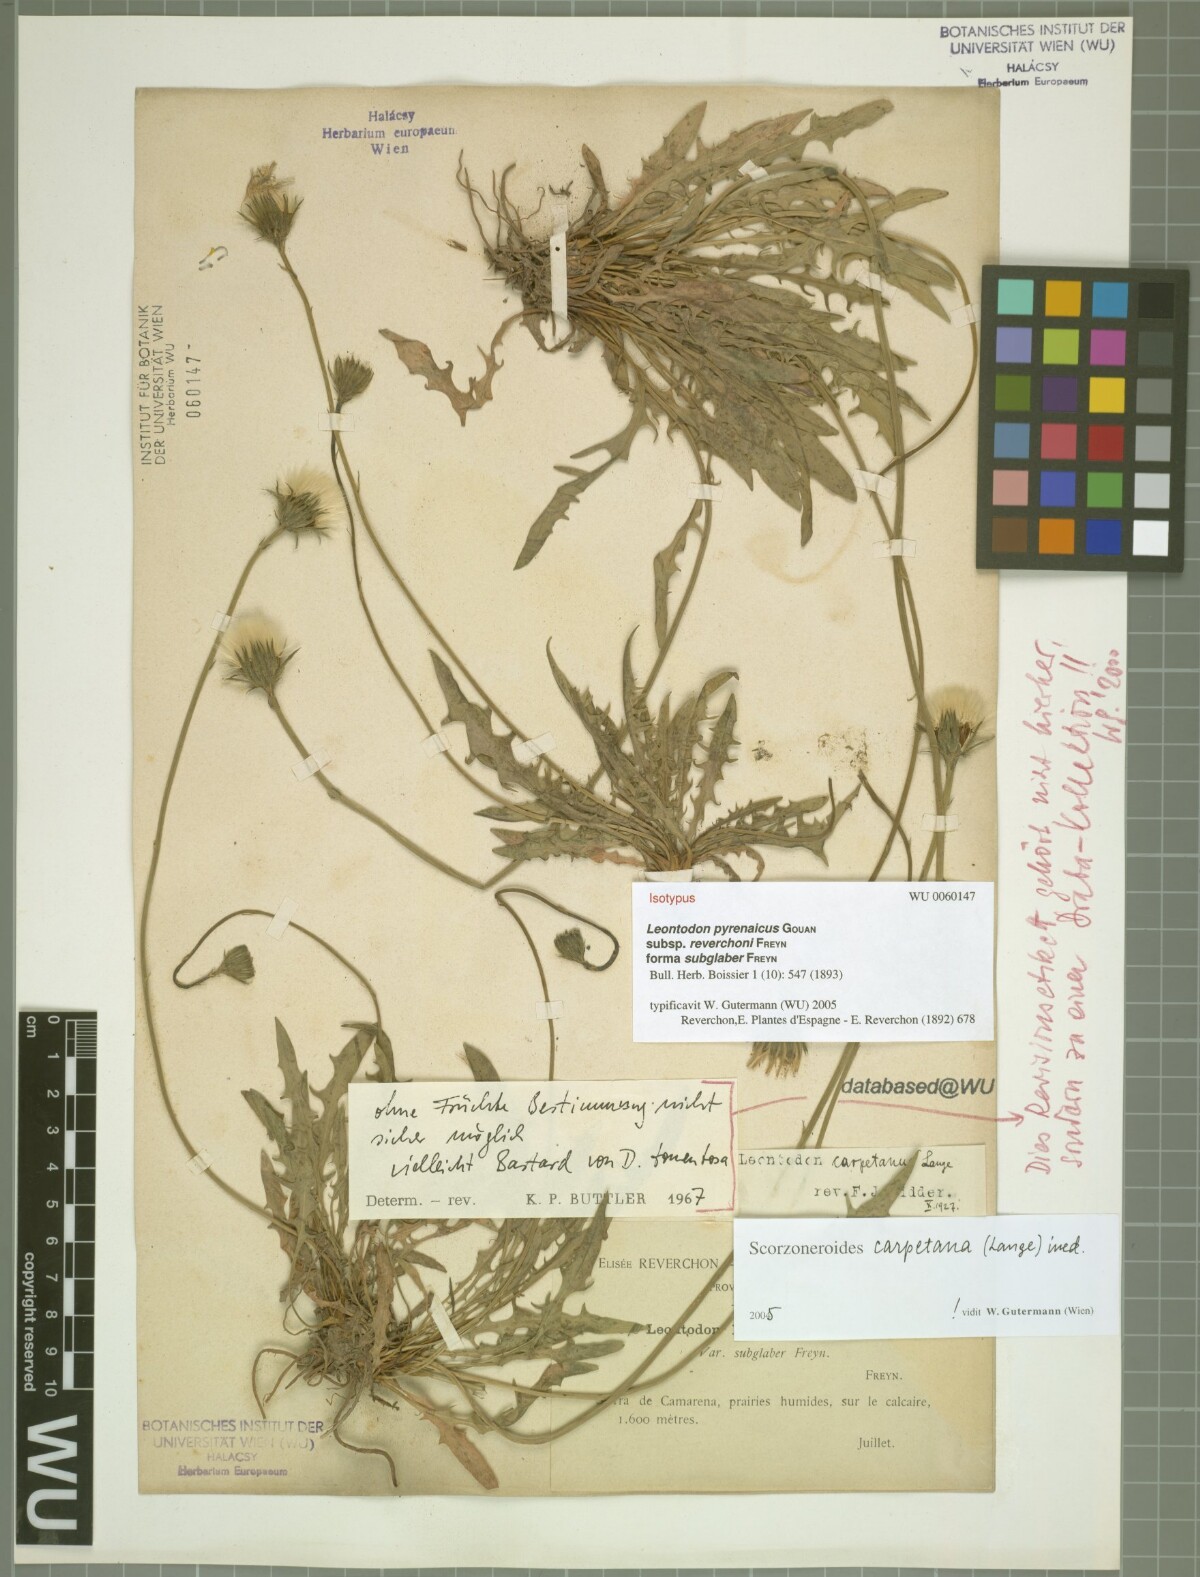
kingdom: Plantae
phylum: Tracheophyta
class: Magnoliopsida
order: Asterales
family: Asteraceae
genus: Scorzoneroides
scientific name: Scorzoneroides pyrenaica
